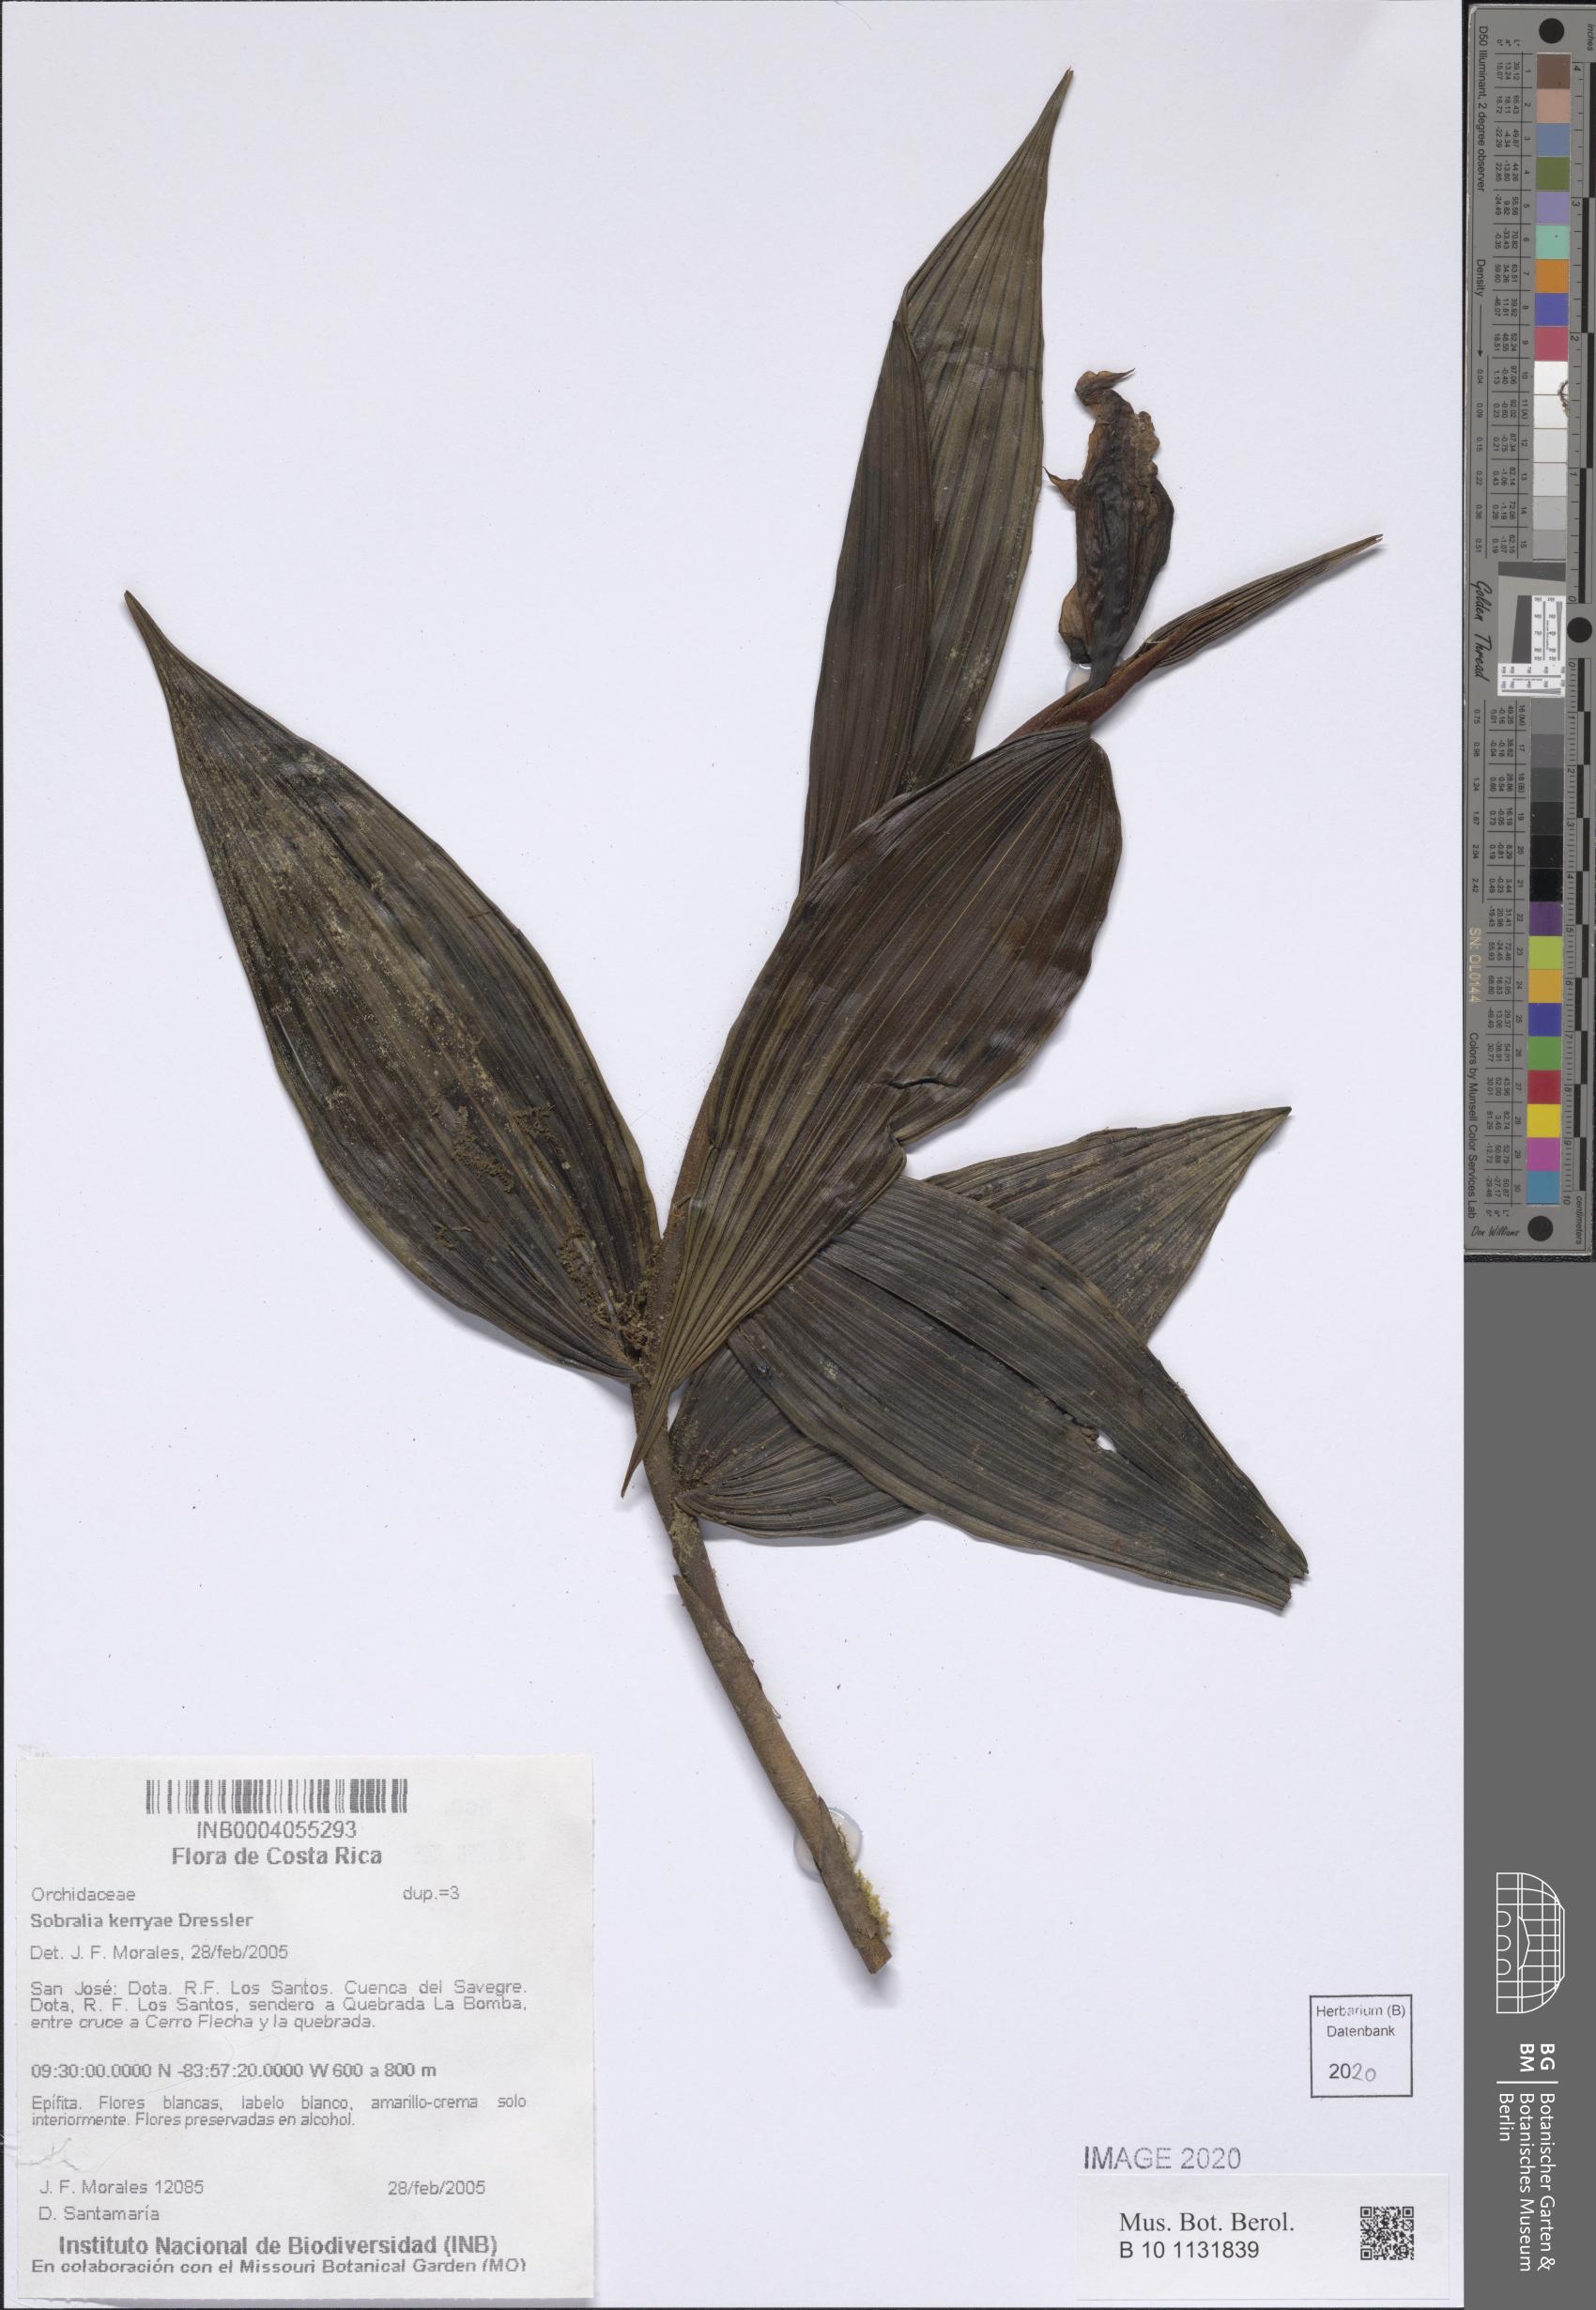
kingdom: Plantae
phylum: Tracheophyta
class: Liliopsida
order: Asparagales
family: Orchidaceae
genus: Sobralia
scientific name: Sobralia kerryae
